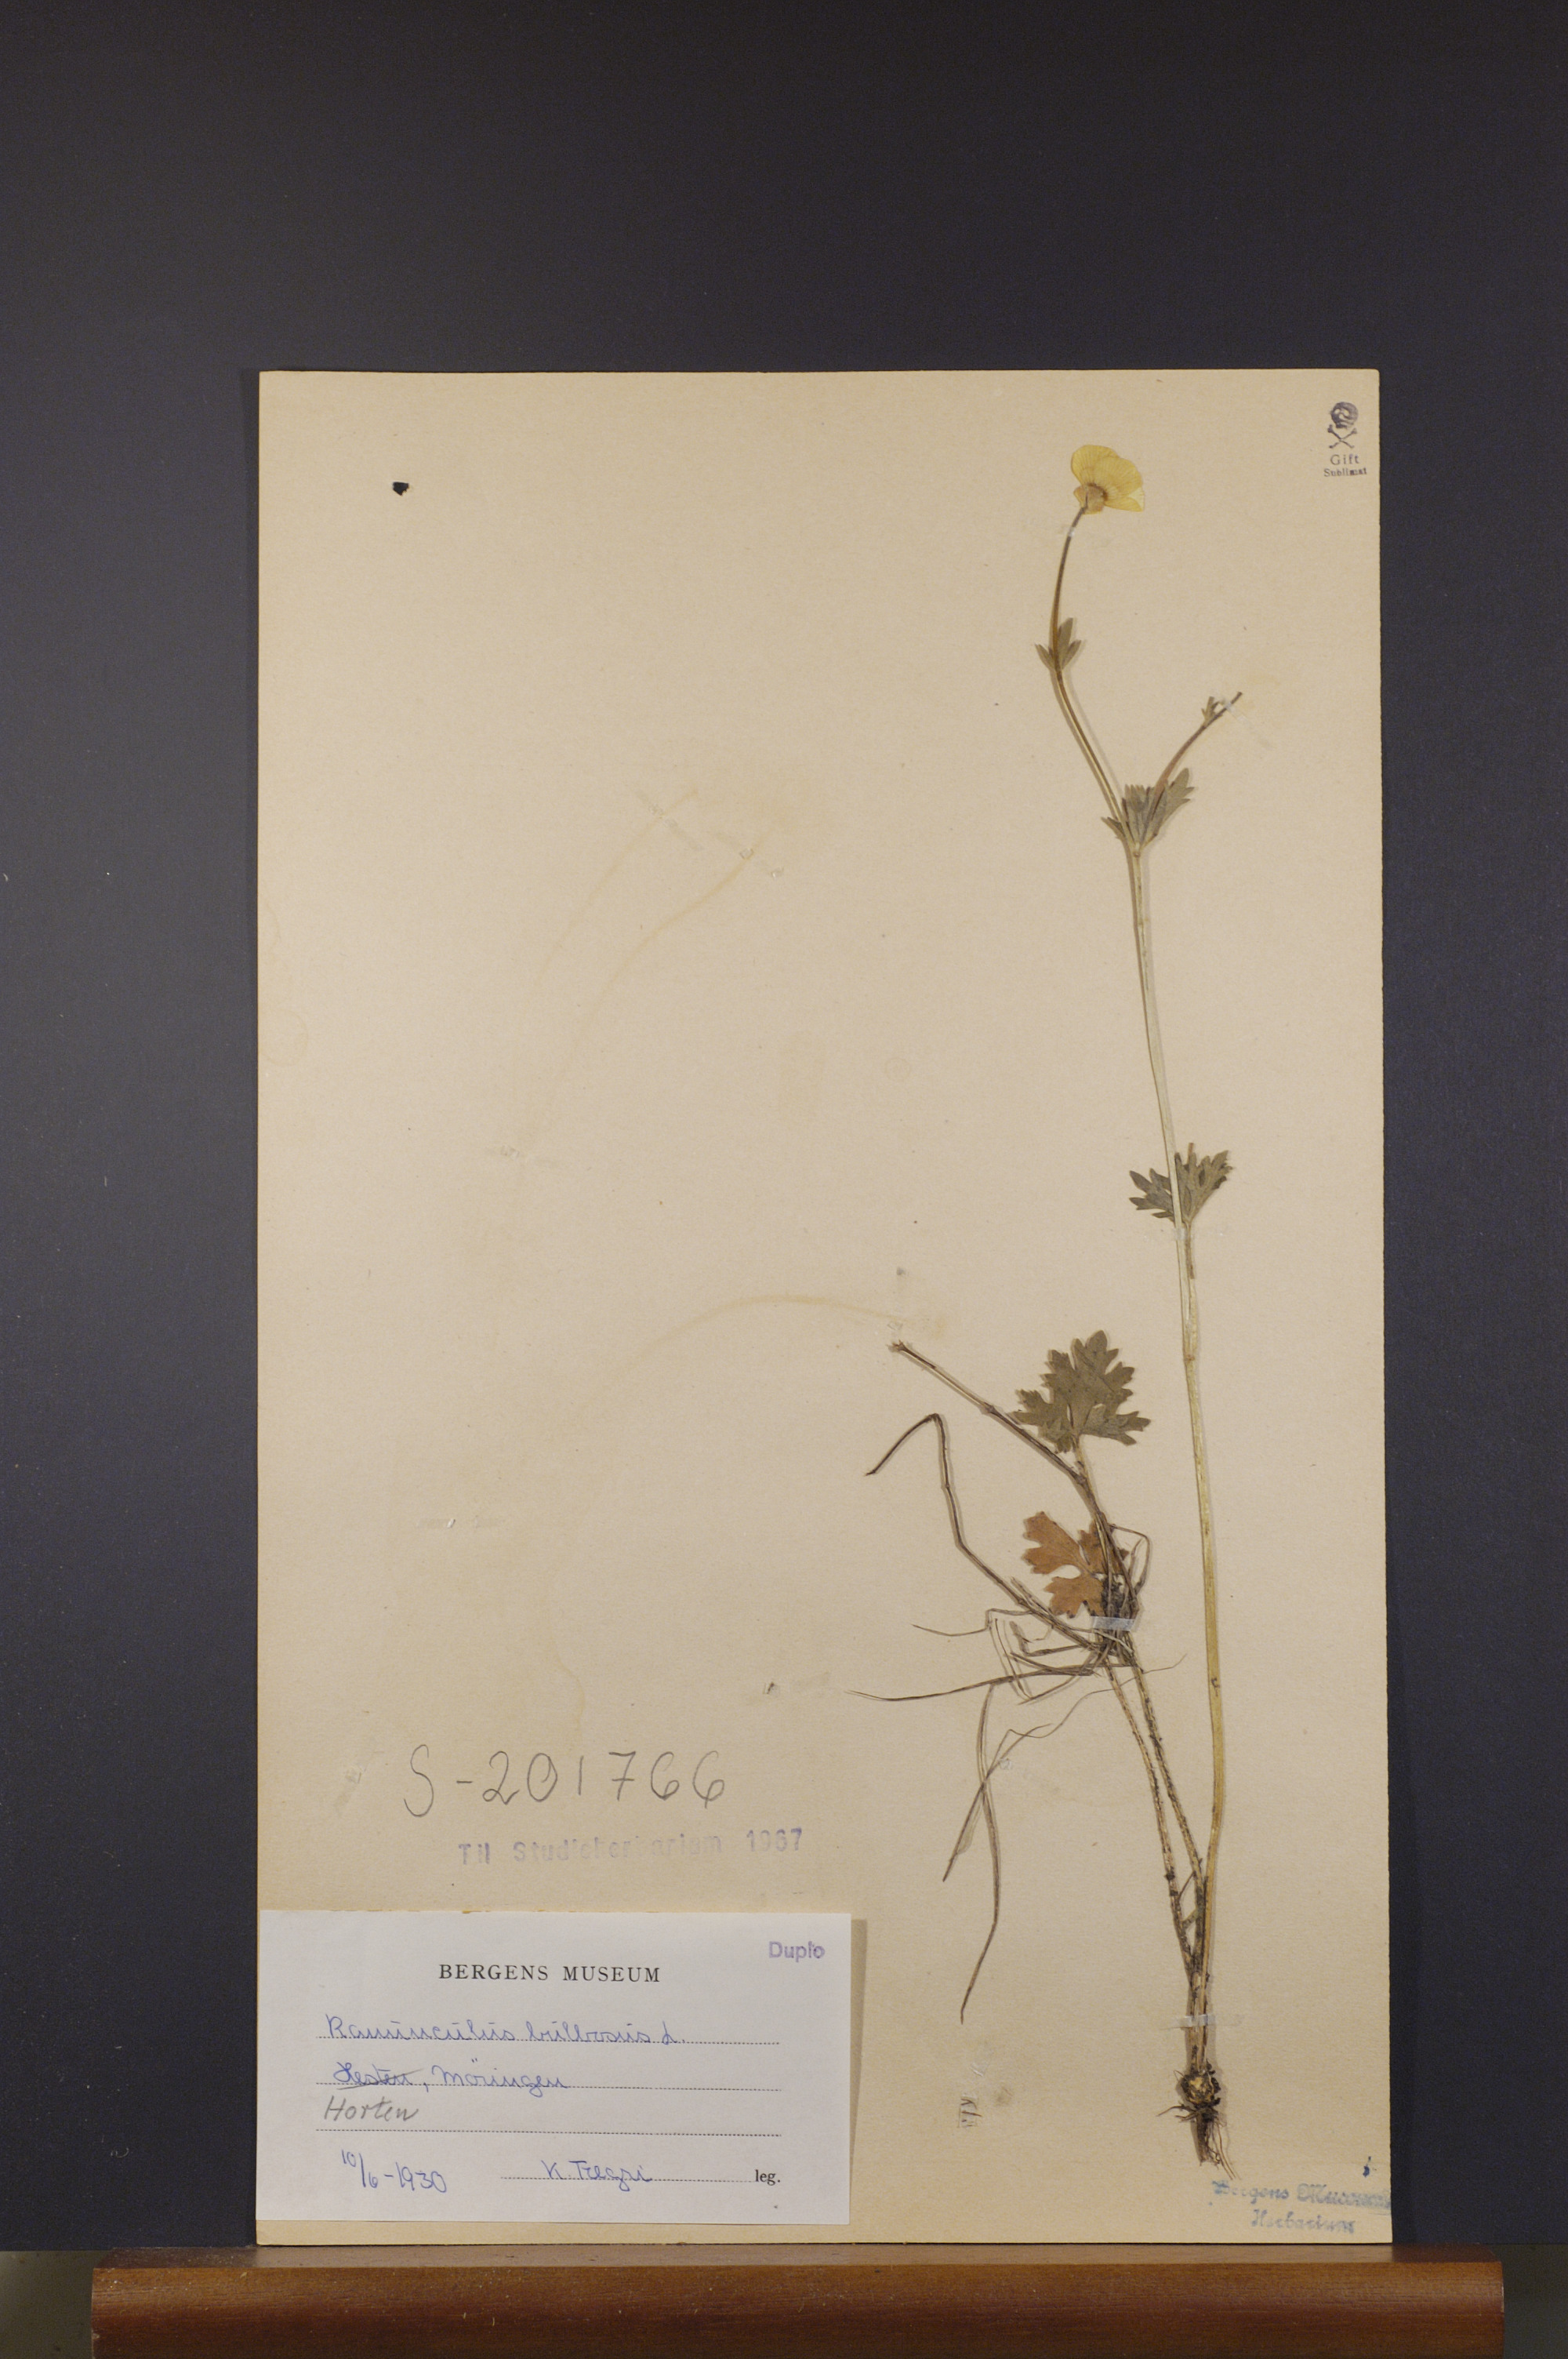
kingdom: Plantae
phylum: Tracheophyta
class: Magnoliopsida
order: Ranunculales
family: Ranunculaceae
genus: Ranunculus
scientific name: Ranunculus bulbosus
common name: Bulbous buttercup
